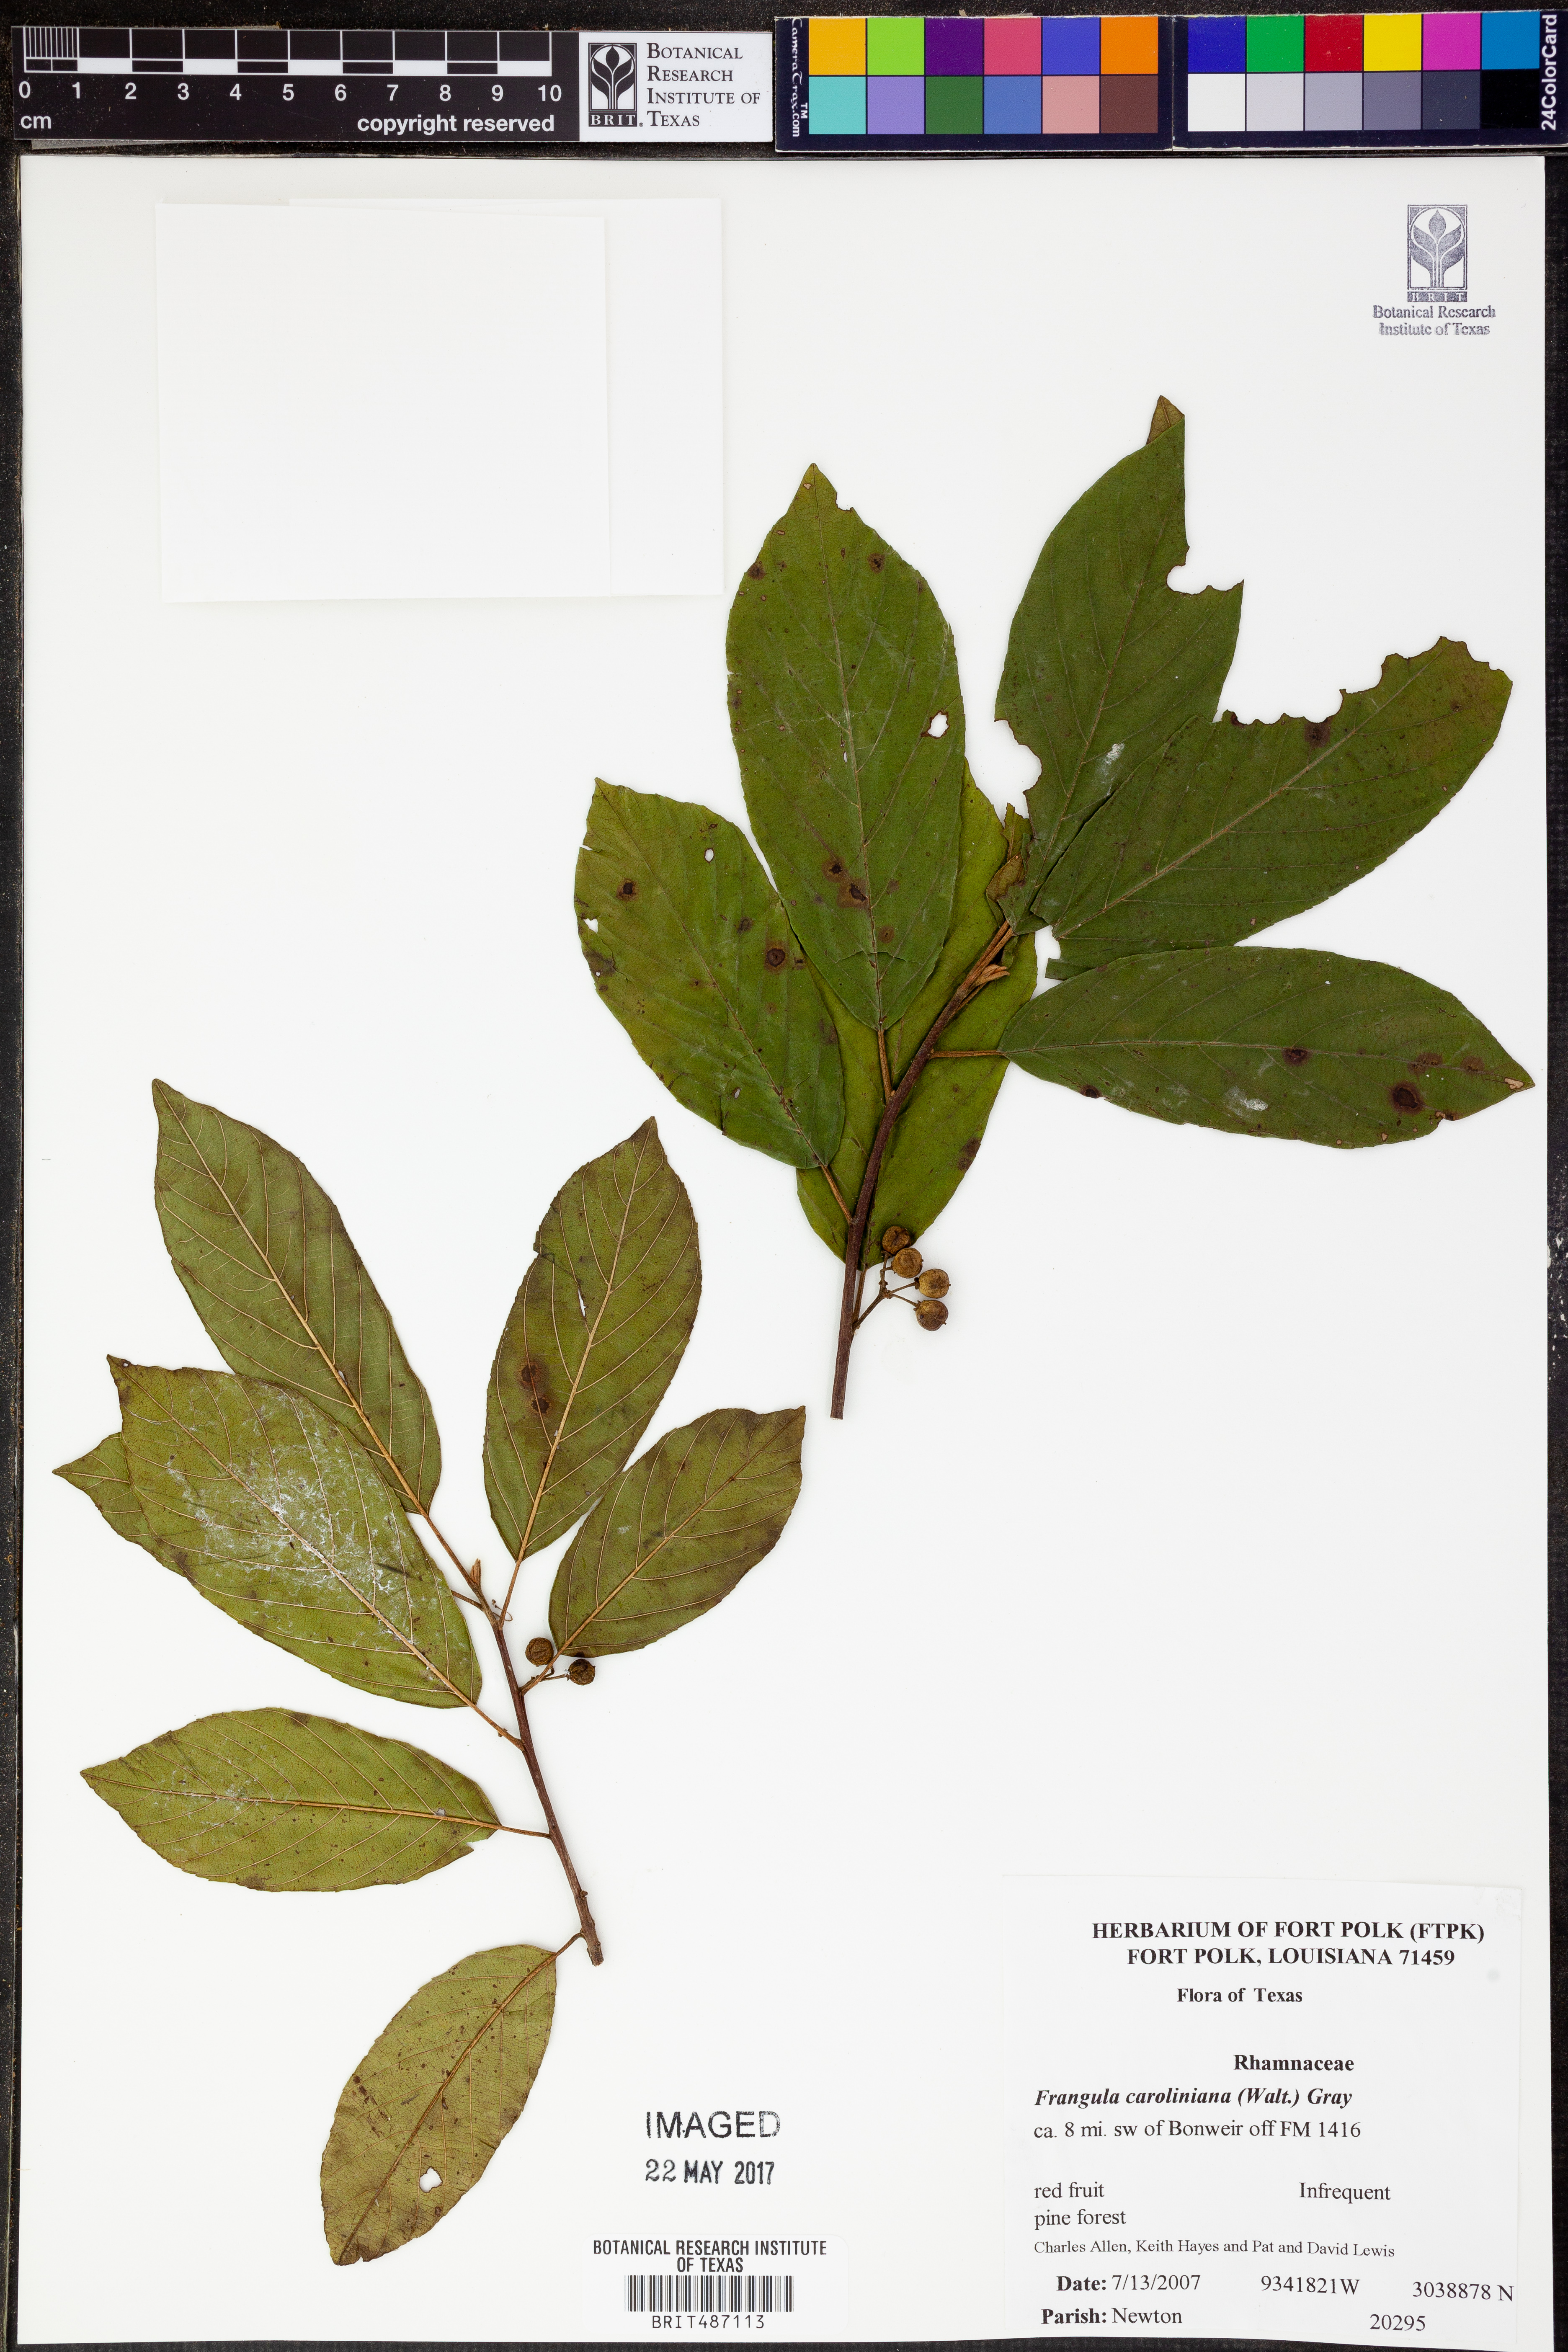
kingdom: Plantae
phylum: Tracheophyta
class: Magnoliopsida
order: Rosales
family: Rhamnaceae
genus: Frangula
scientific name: Frangula caroliniana
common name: Carolina buckthorn
